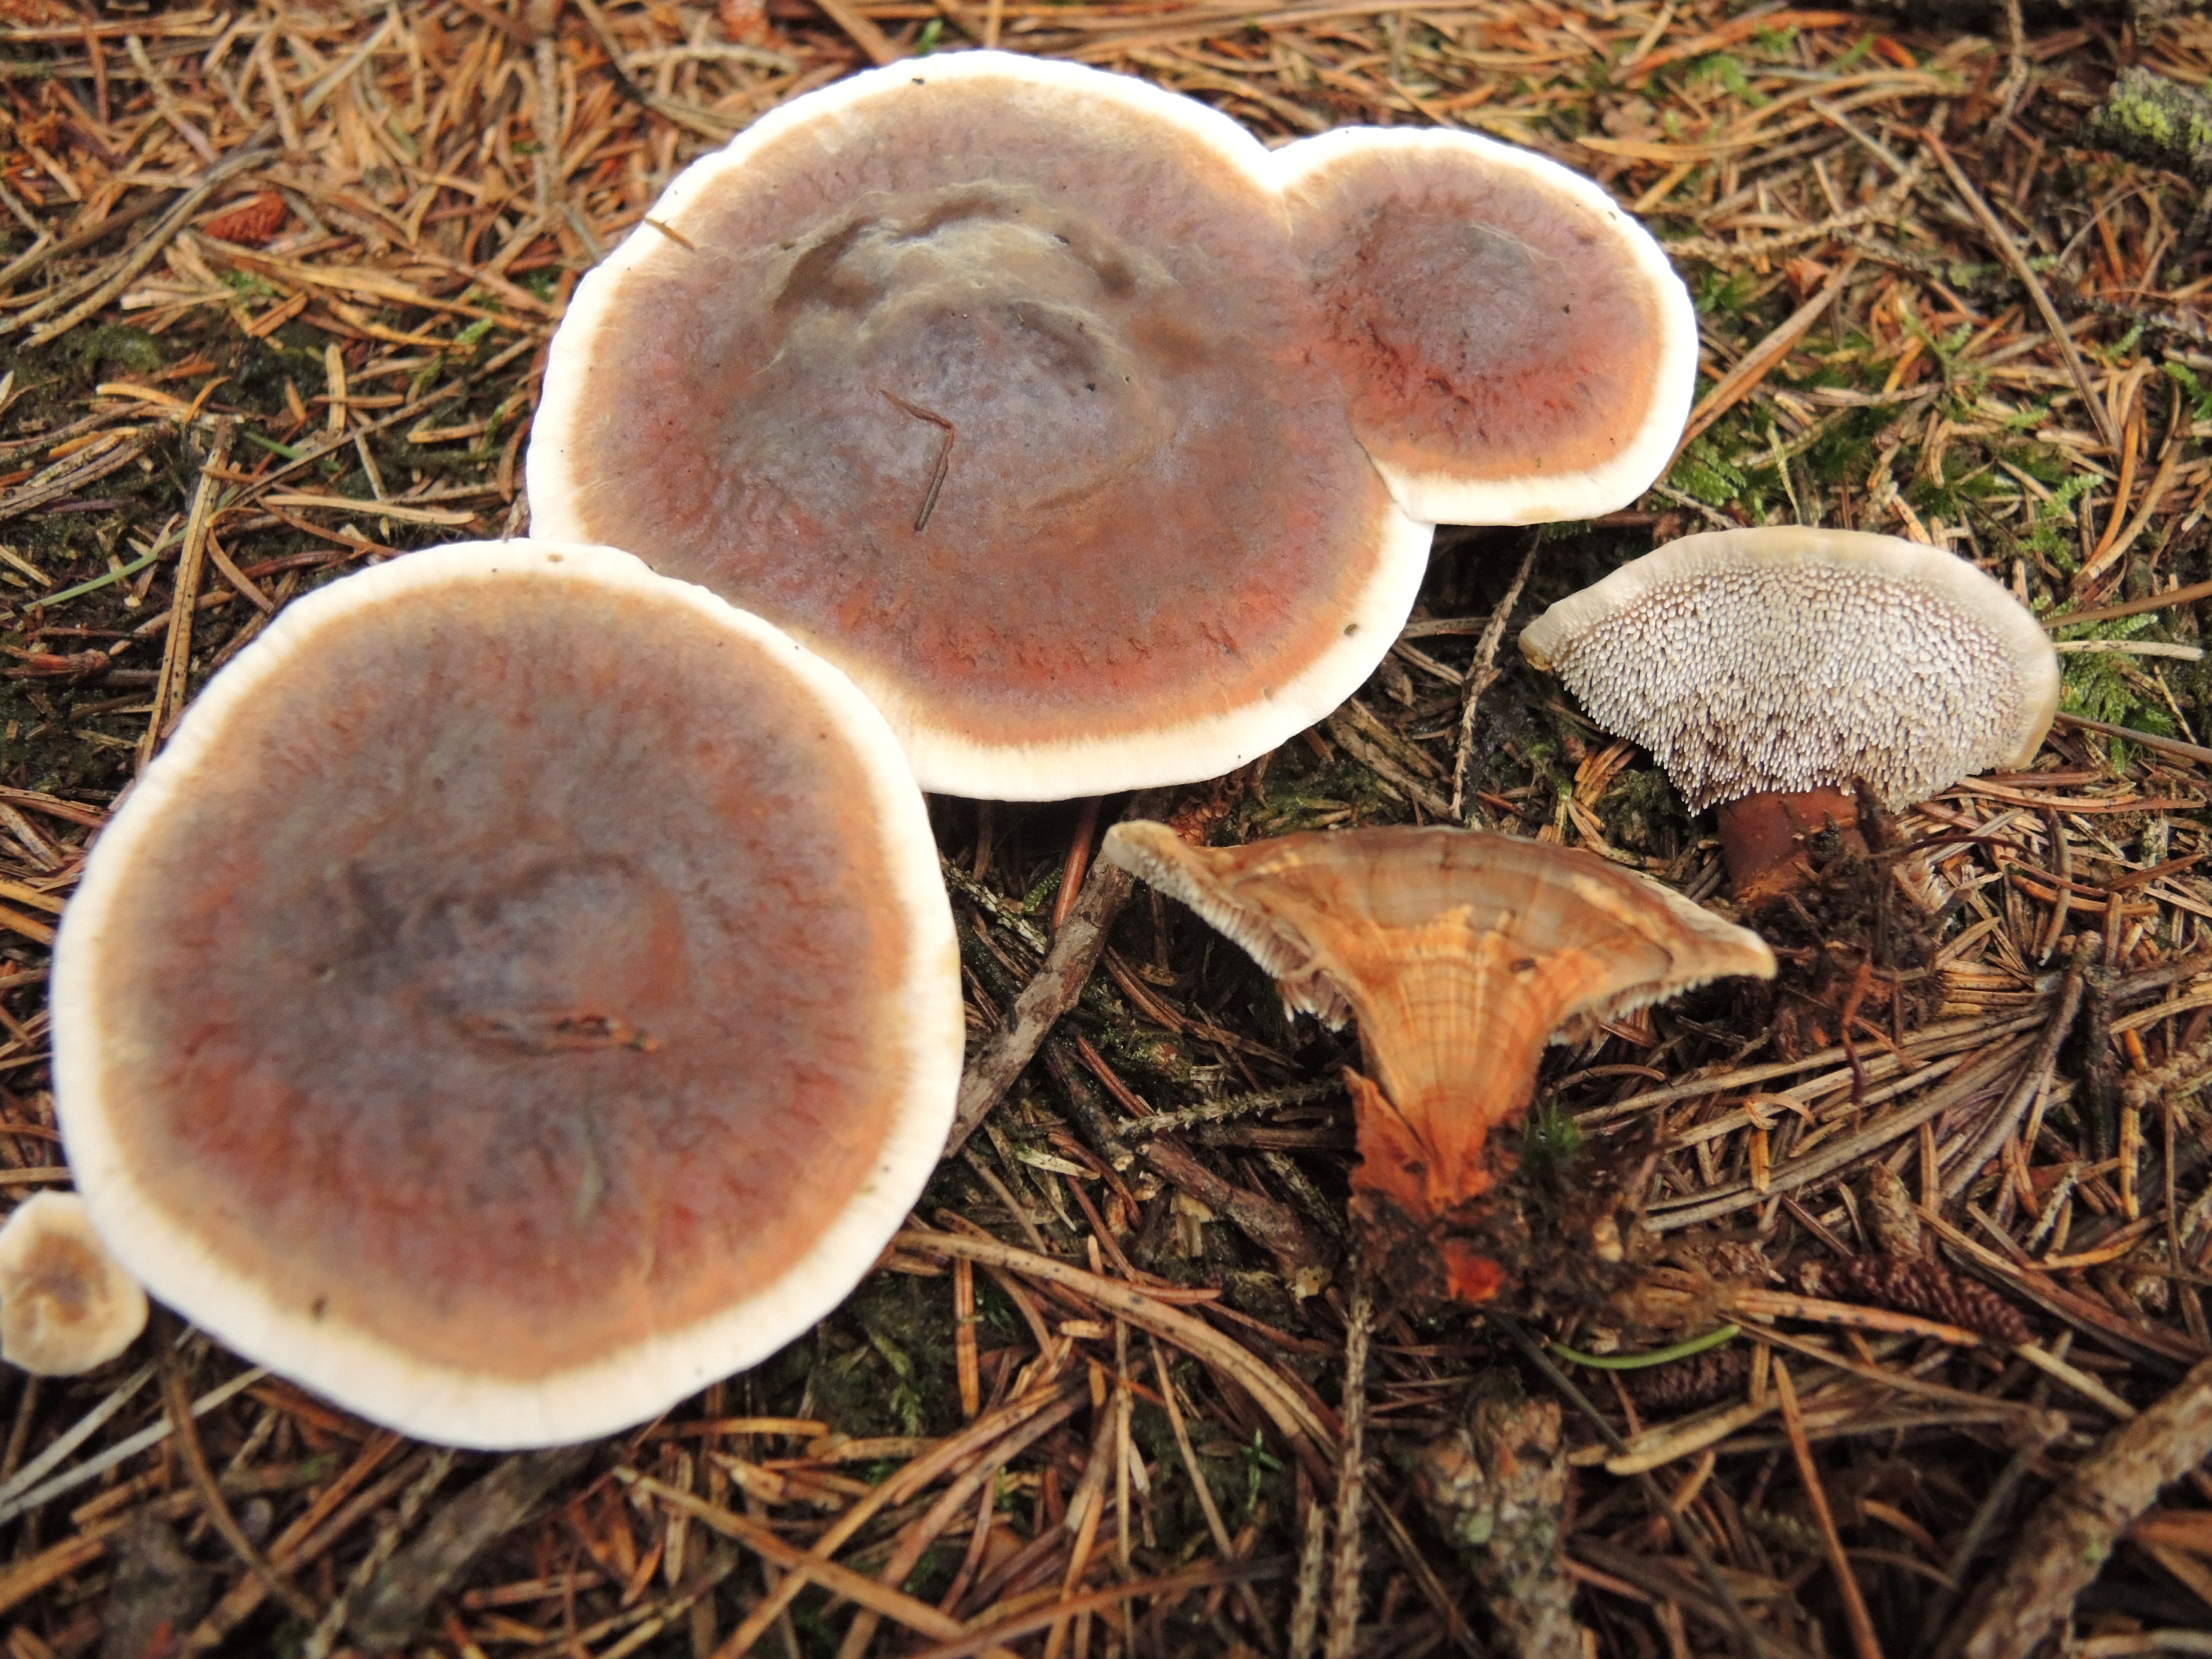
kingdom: Fungi
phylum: Basidiomycota
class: Agaricomycetes
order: Thelephorales
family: Bankeraceae
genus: Hydnellum
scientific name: Hydnellum aurantiacum
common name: orange korkpigsvamp
